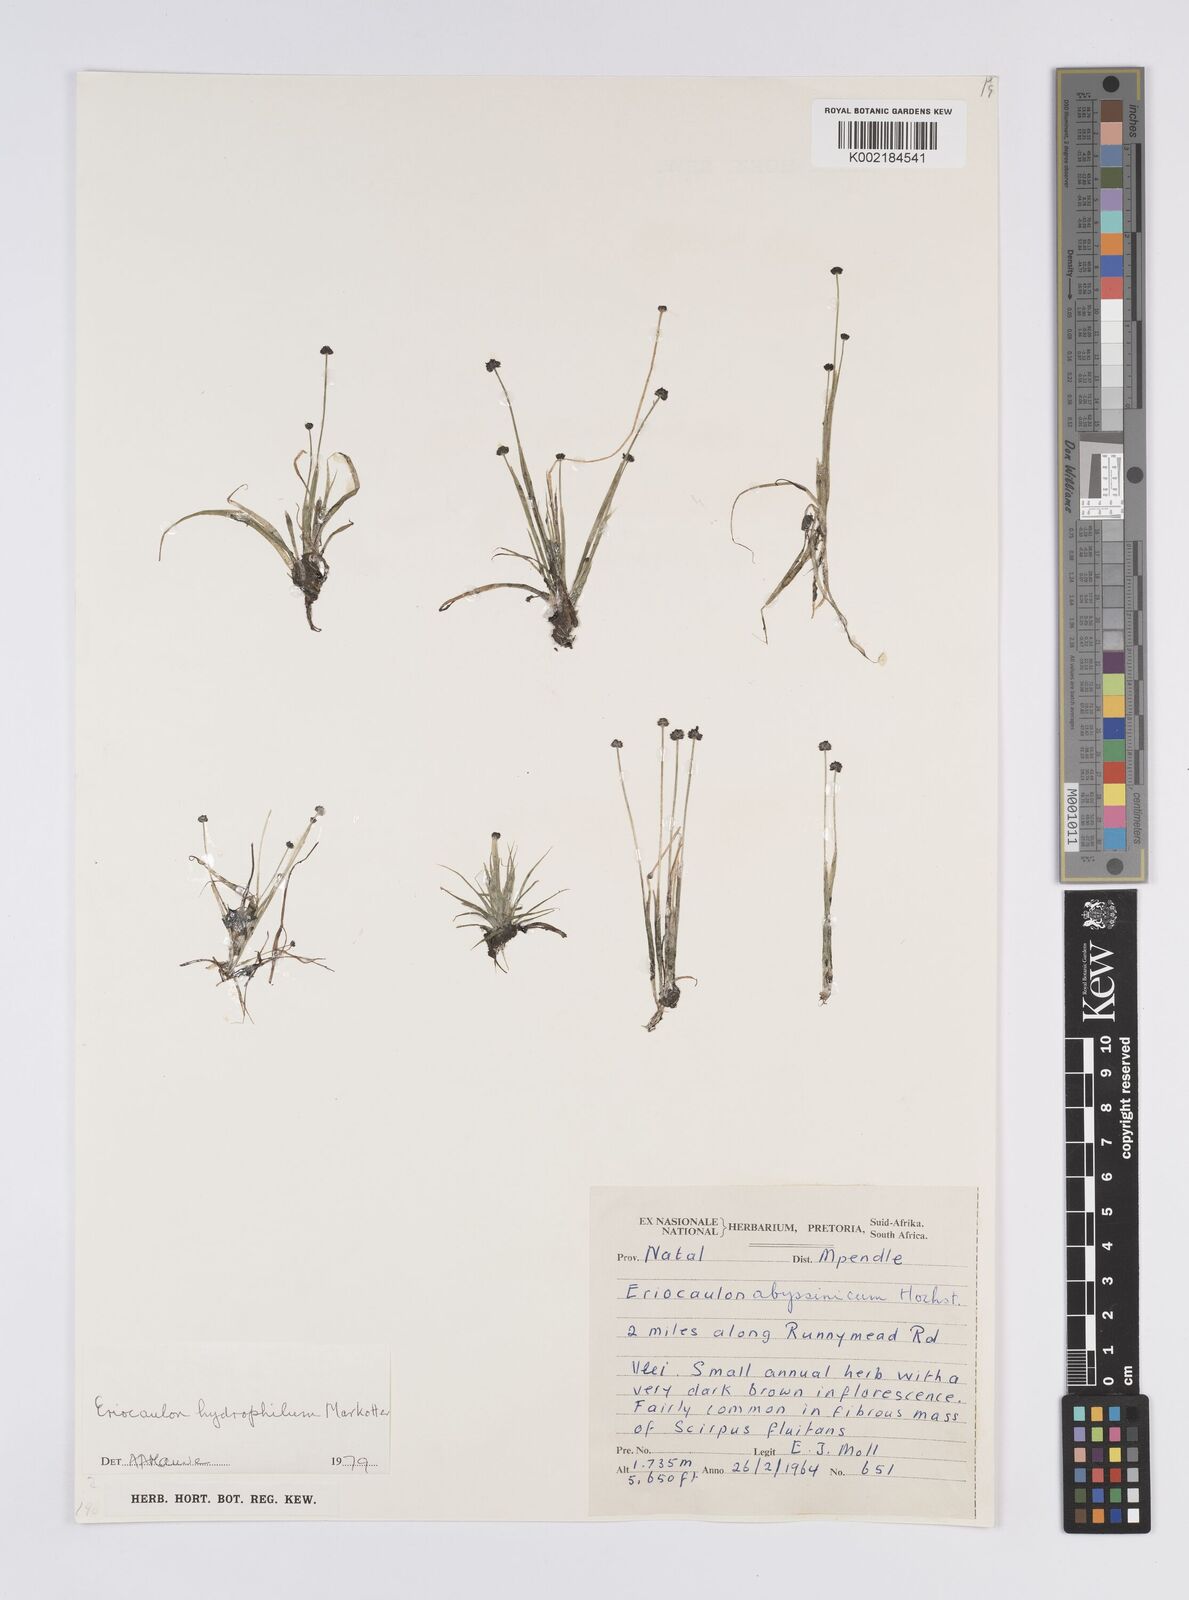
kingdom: Plantae
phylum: Tracheophyta
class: Liliopsida
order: Poales
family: Eriocaulaceae
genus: Eriocaulon
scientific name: Eriocaulon hydrophilum
